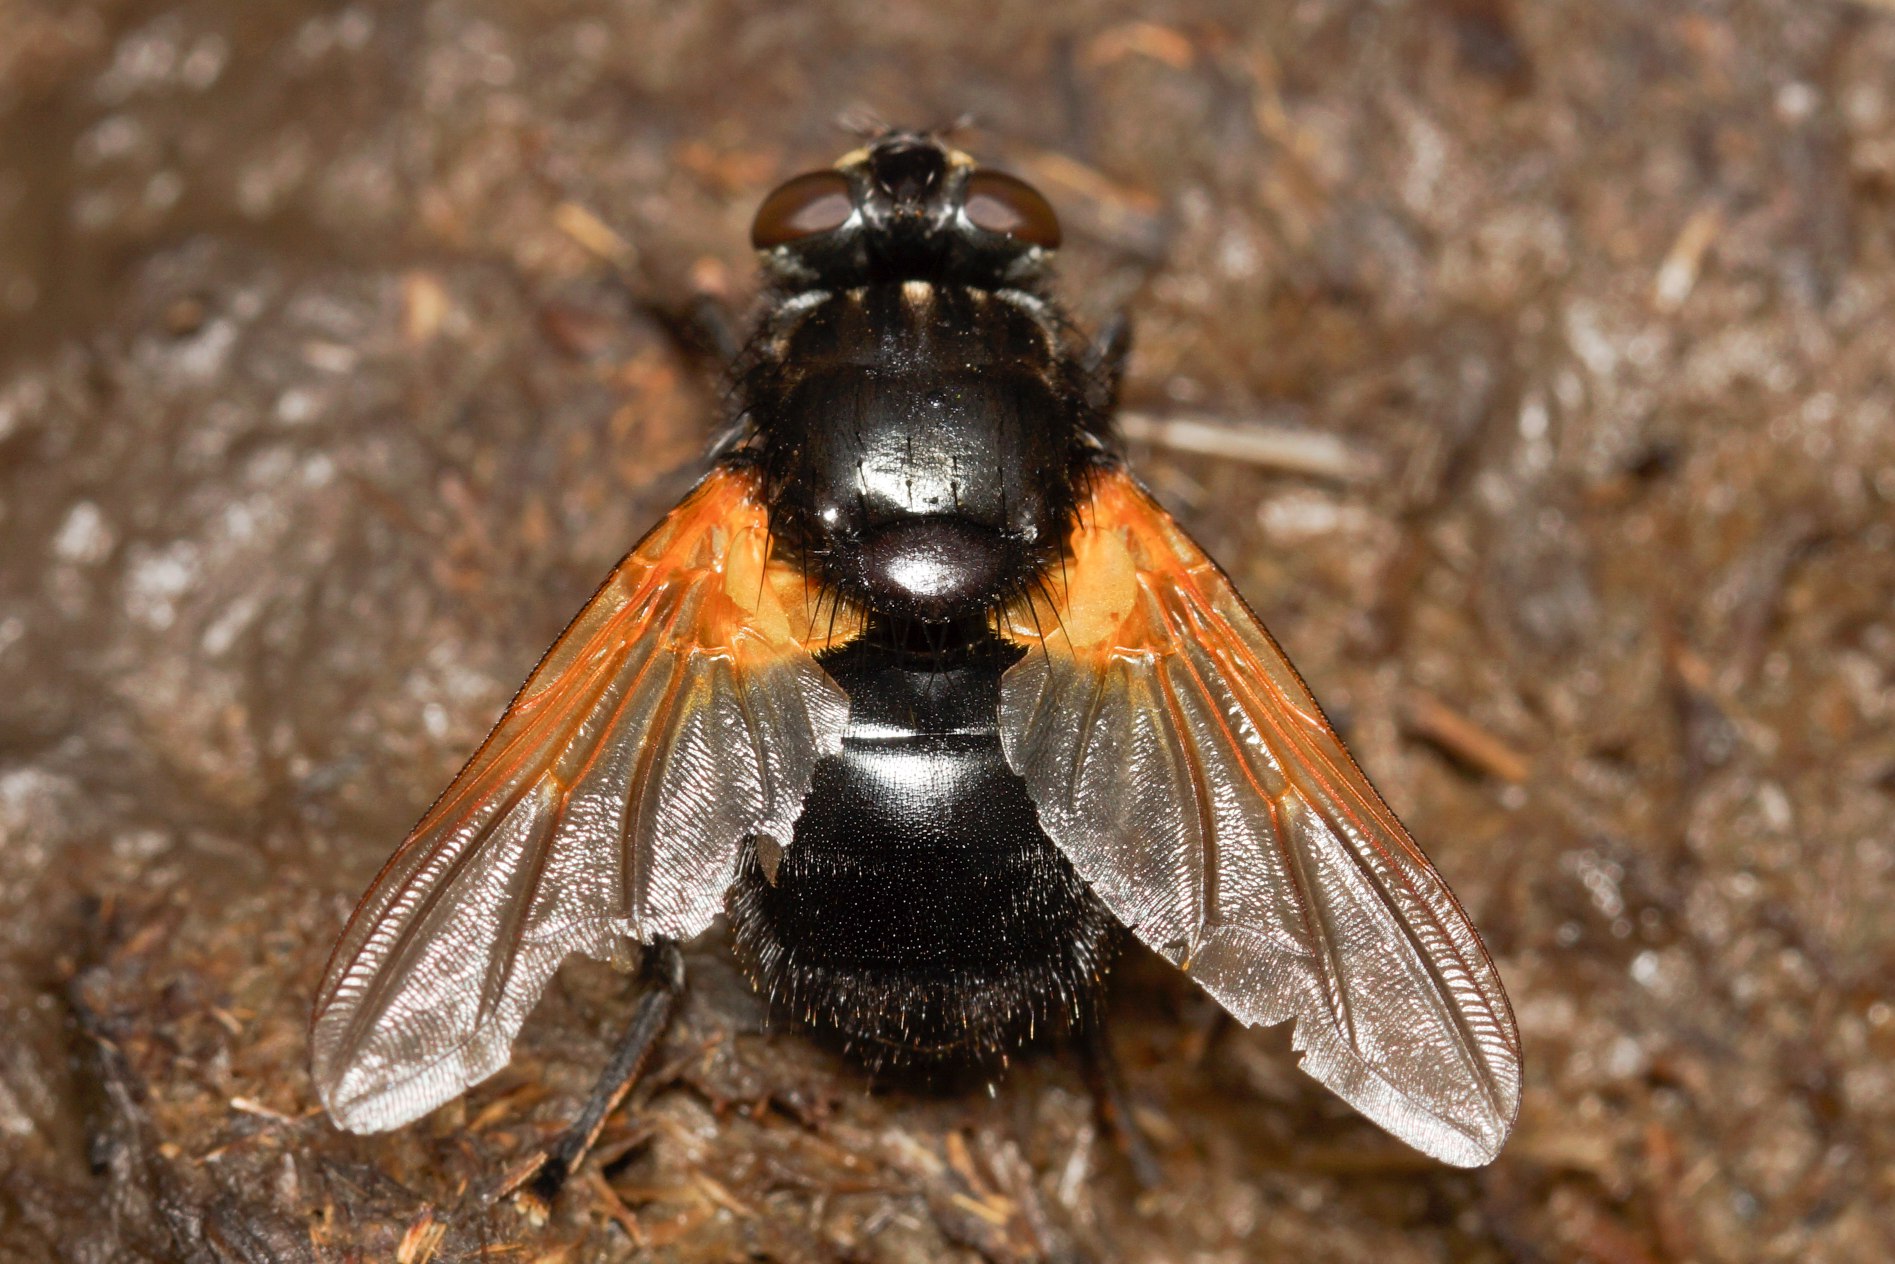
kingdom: Animalia
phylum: Arthropoda
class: Insecta
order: Diptera
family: Muscidae
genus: Mesembrina
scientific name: Mesembrina meridiana
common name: Gulvinget flue
